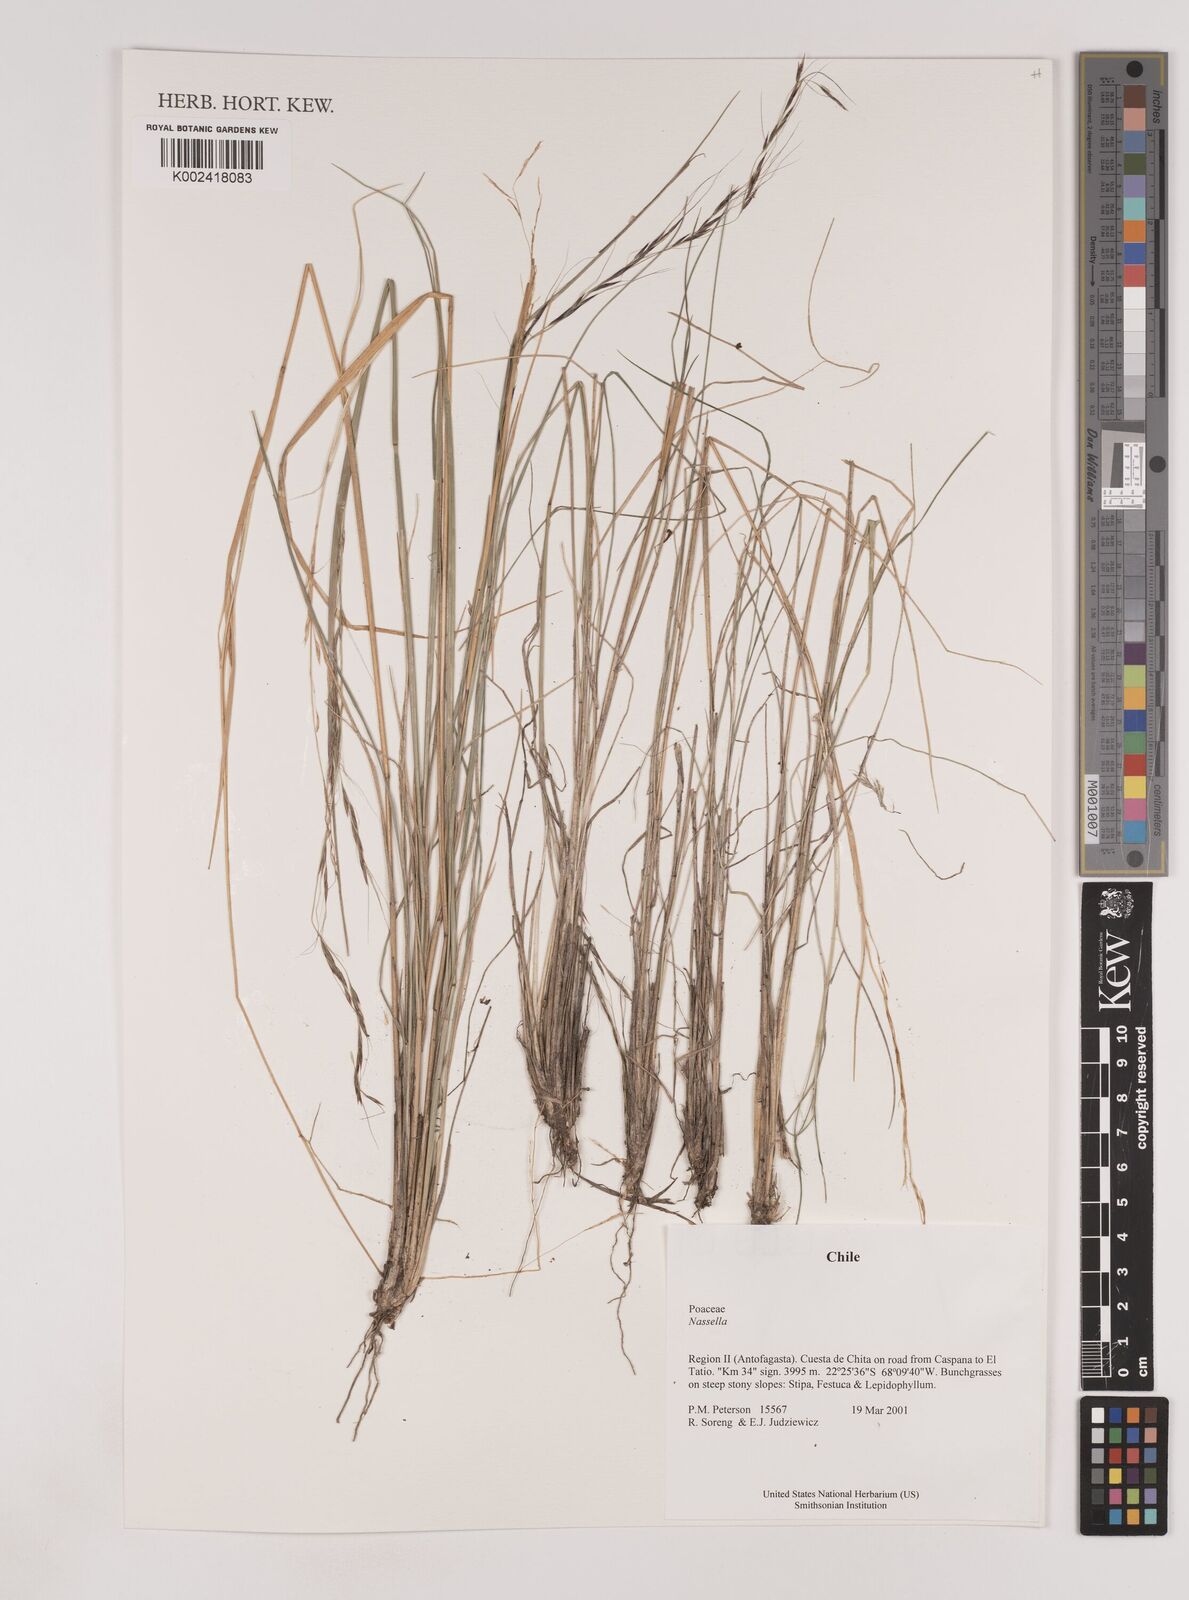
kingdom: Plantae
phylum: Tracheophyta
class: Liliopsida
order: Poales
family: Poaceae
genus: Nassella
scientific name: Nassella
